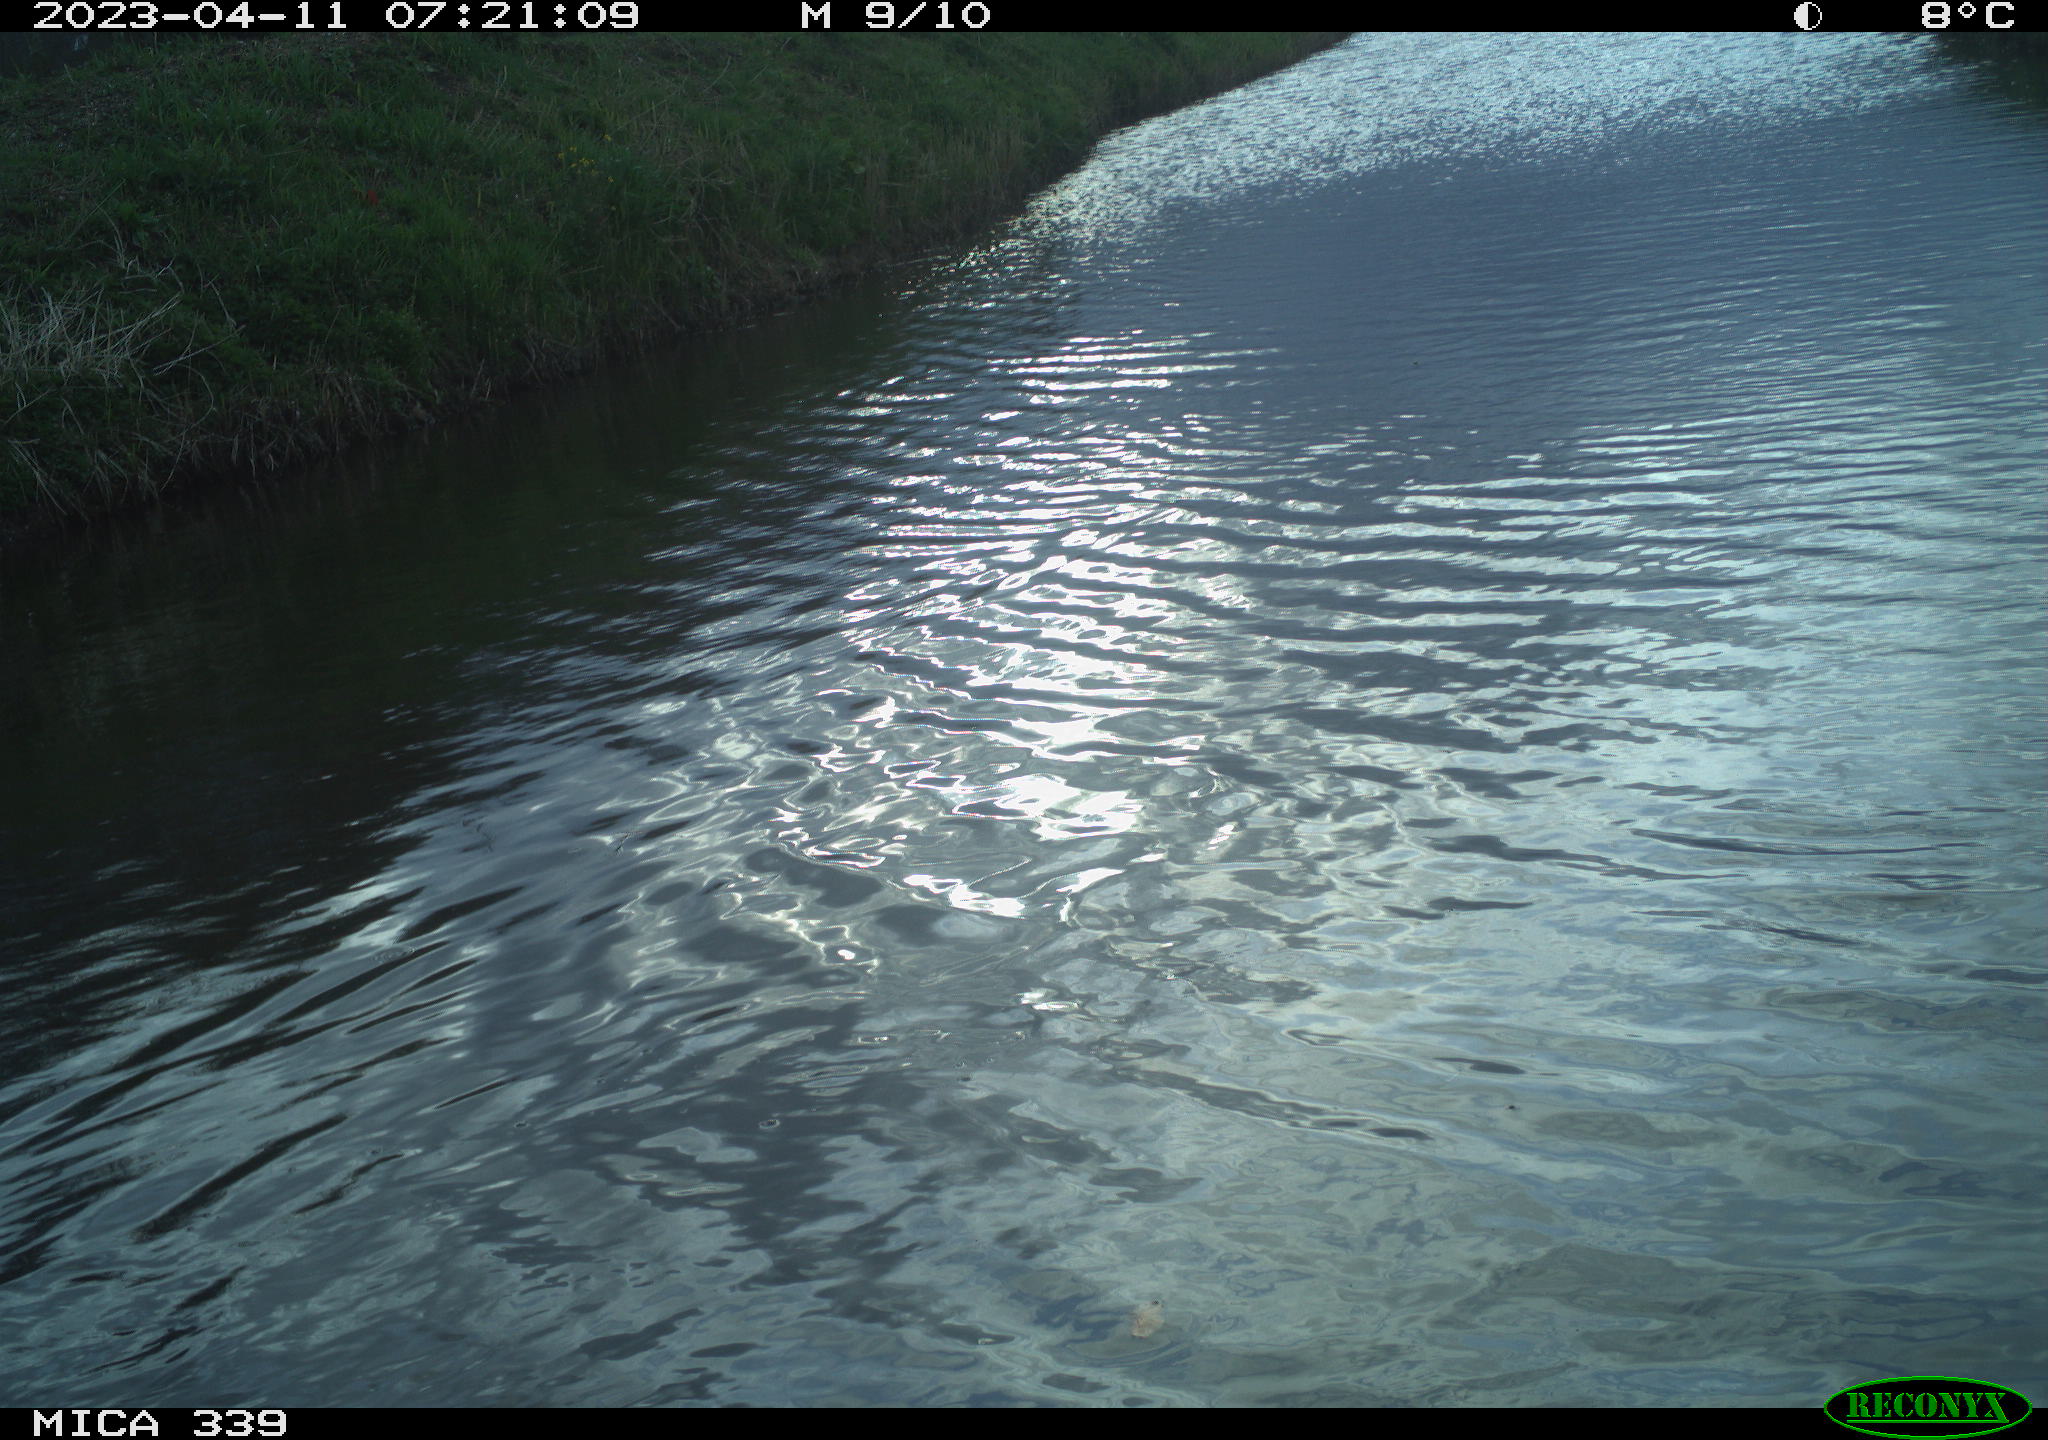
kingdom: Animalia
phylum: Chordata
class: Aves
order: Anseriformes
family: Anatidae
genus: Anas
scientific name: Anas
